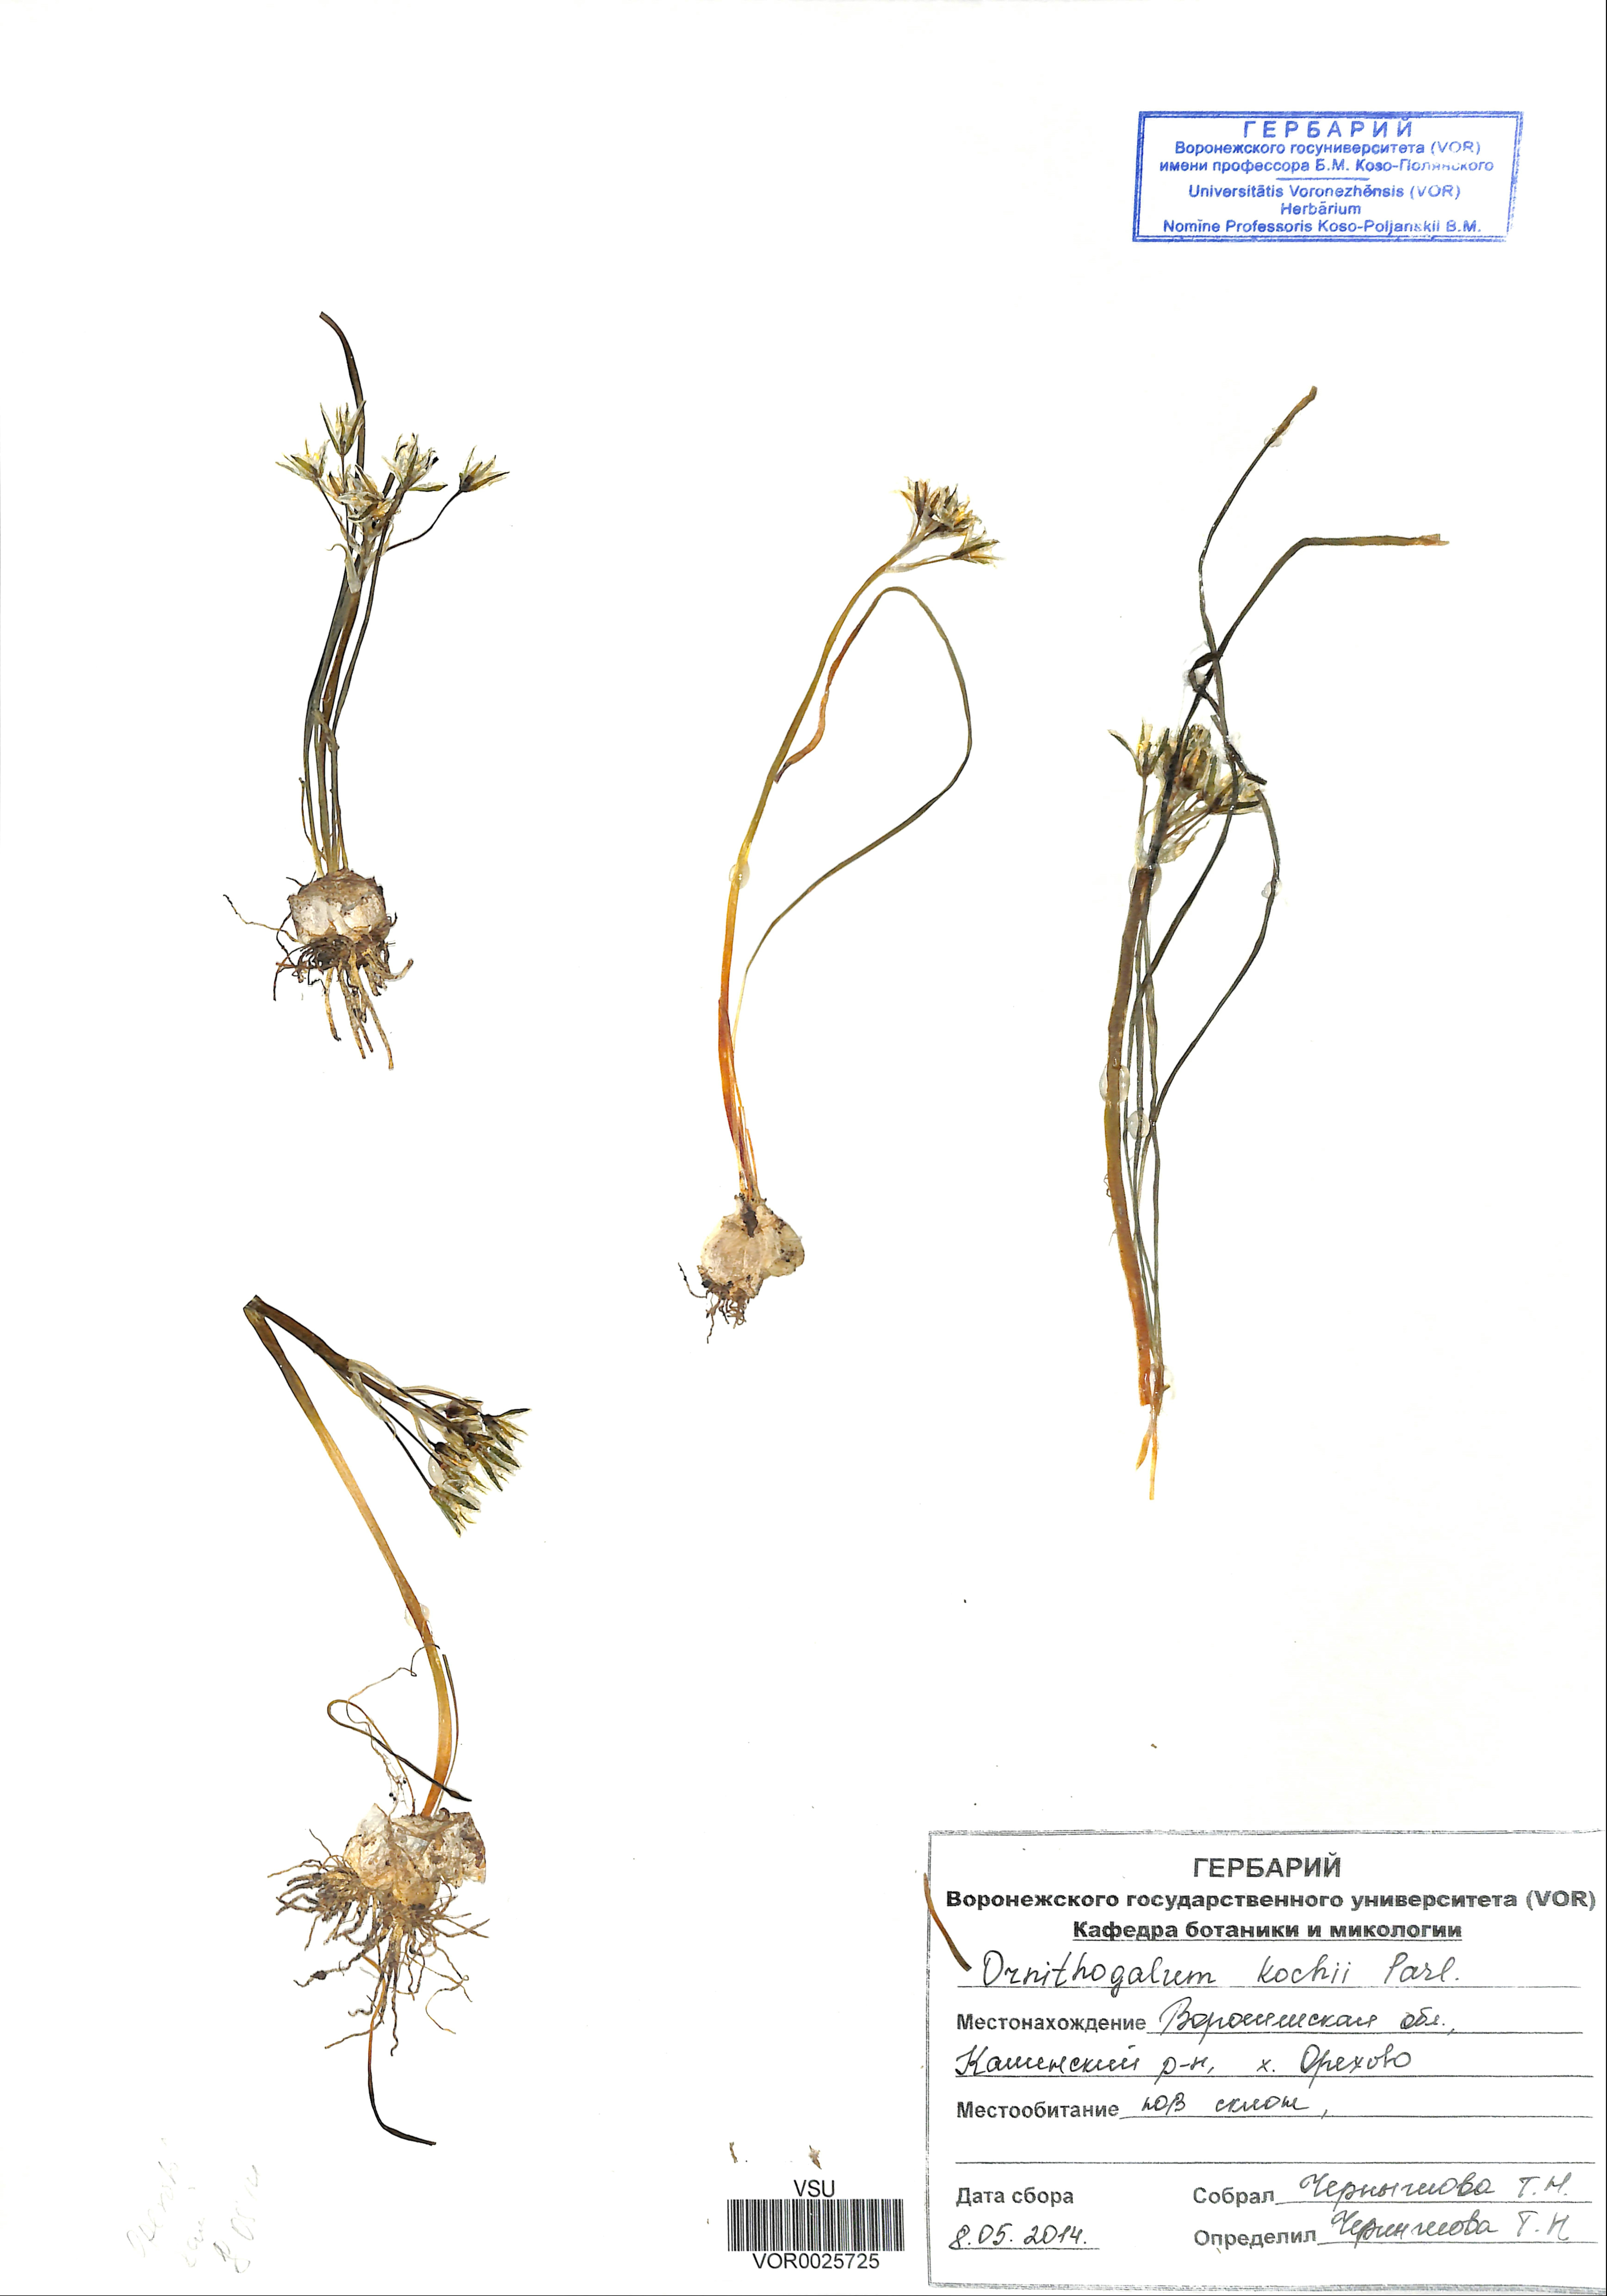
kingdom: Plantae
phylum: Tracheophyta
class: Liliopsida
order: Asparagales
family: Asparagaceae
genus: Ornithogalum
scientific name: Ornithogalum orthophyllum
